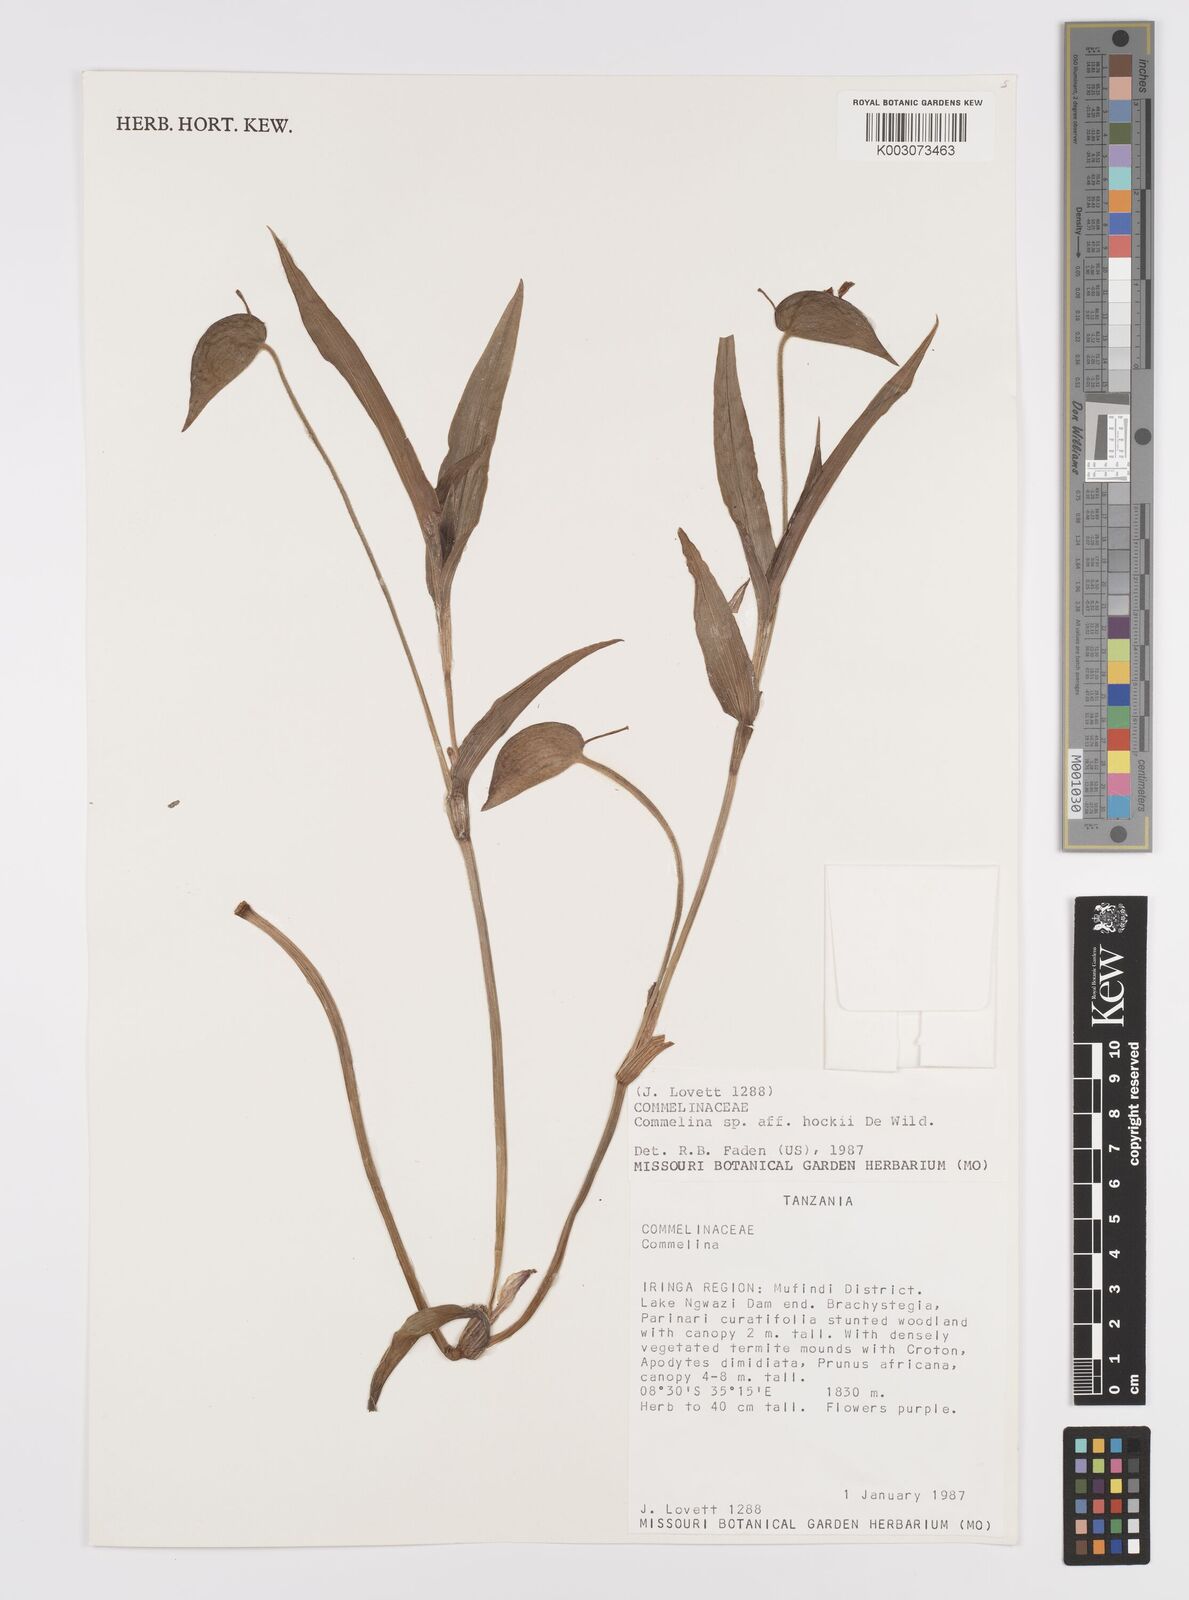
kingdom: Plantae
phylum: Tracheophyta
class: Liliopsida
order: Commelinales
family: Commelinaceae
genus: Commelina
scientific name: Commelina kituloensis
